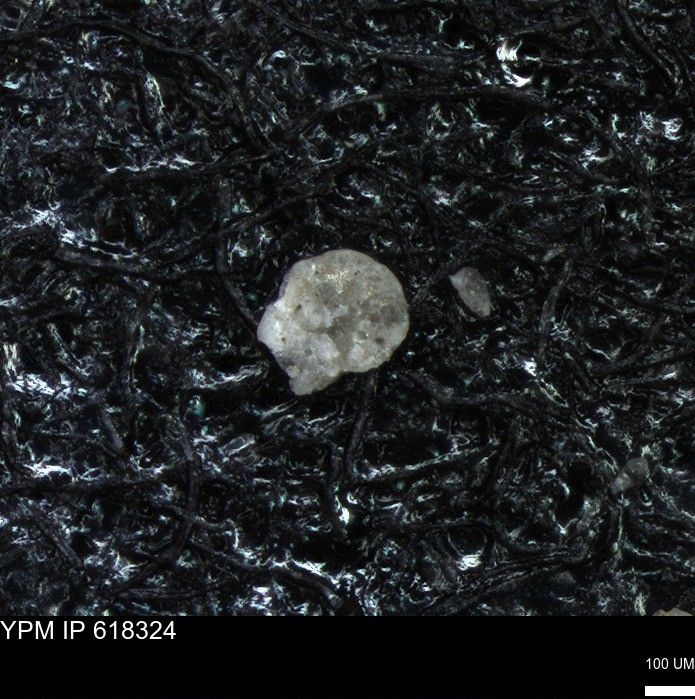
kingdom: Chromista
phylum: Foraminifera
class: Globothalamea
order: Rotaliida
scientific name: Rotaliida
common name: forams
